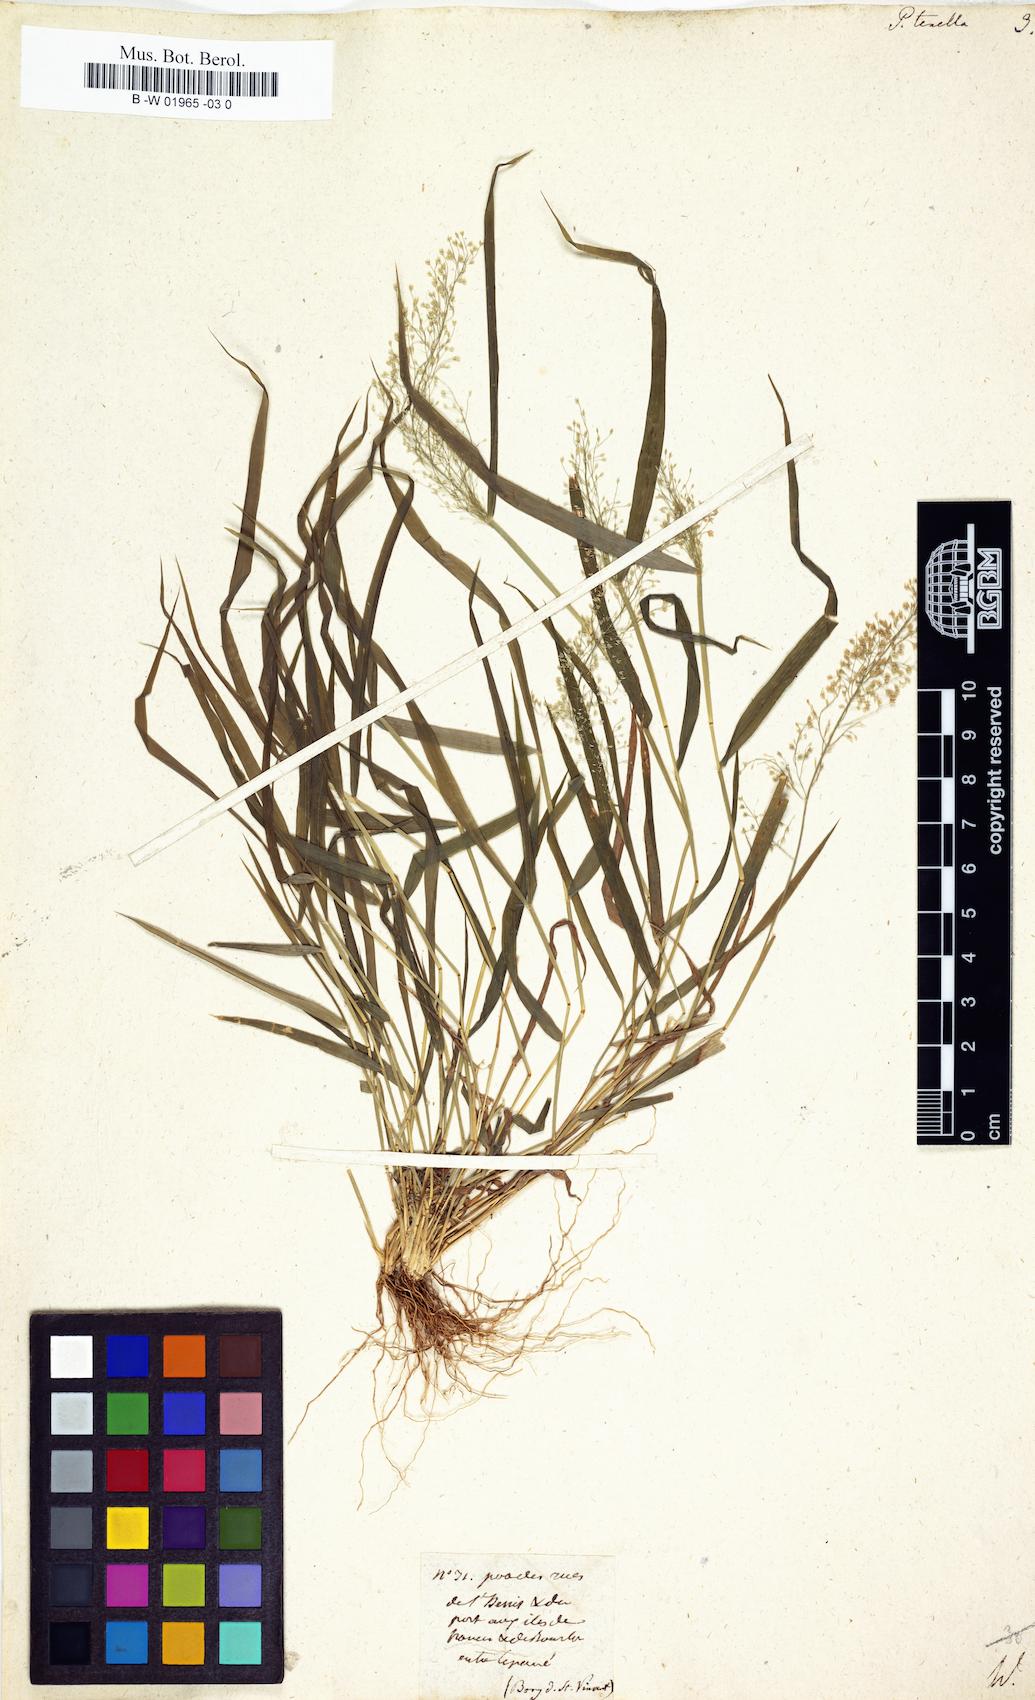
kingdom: Plantae
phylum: Tracheophyta
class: Liliopsida
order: Poales
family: Poaceae
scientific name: Poaceae
